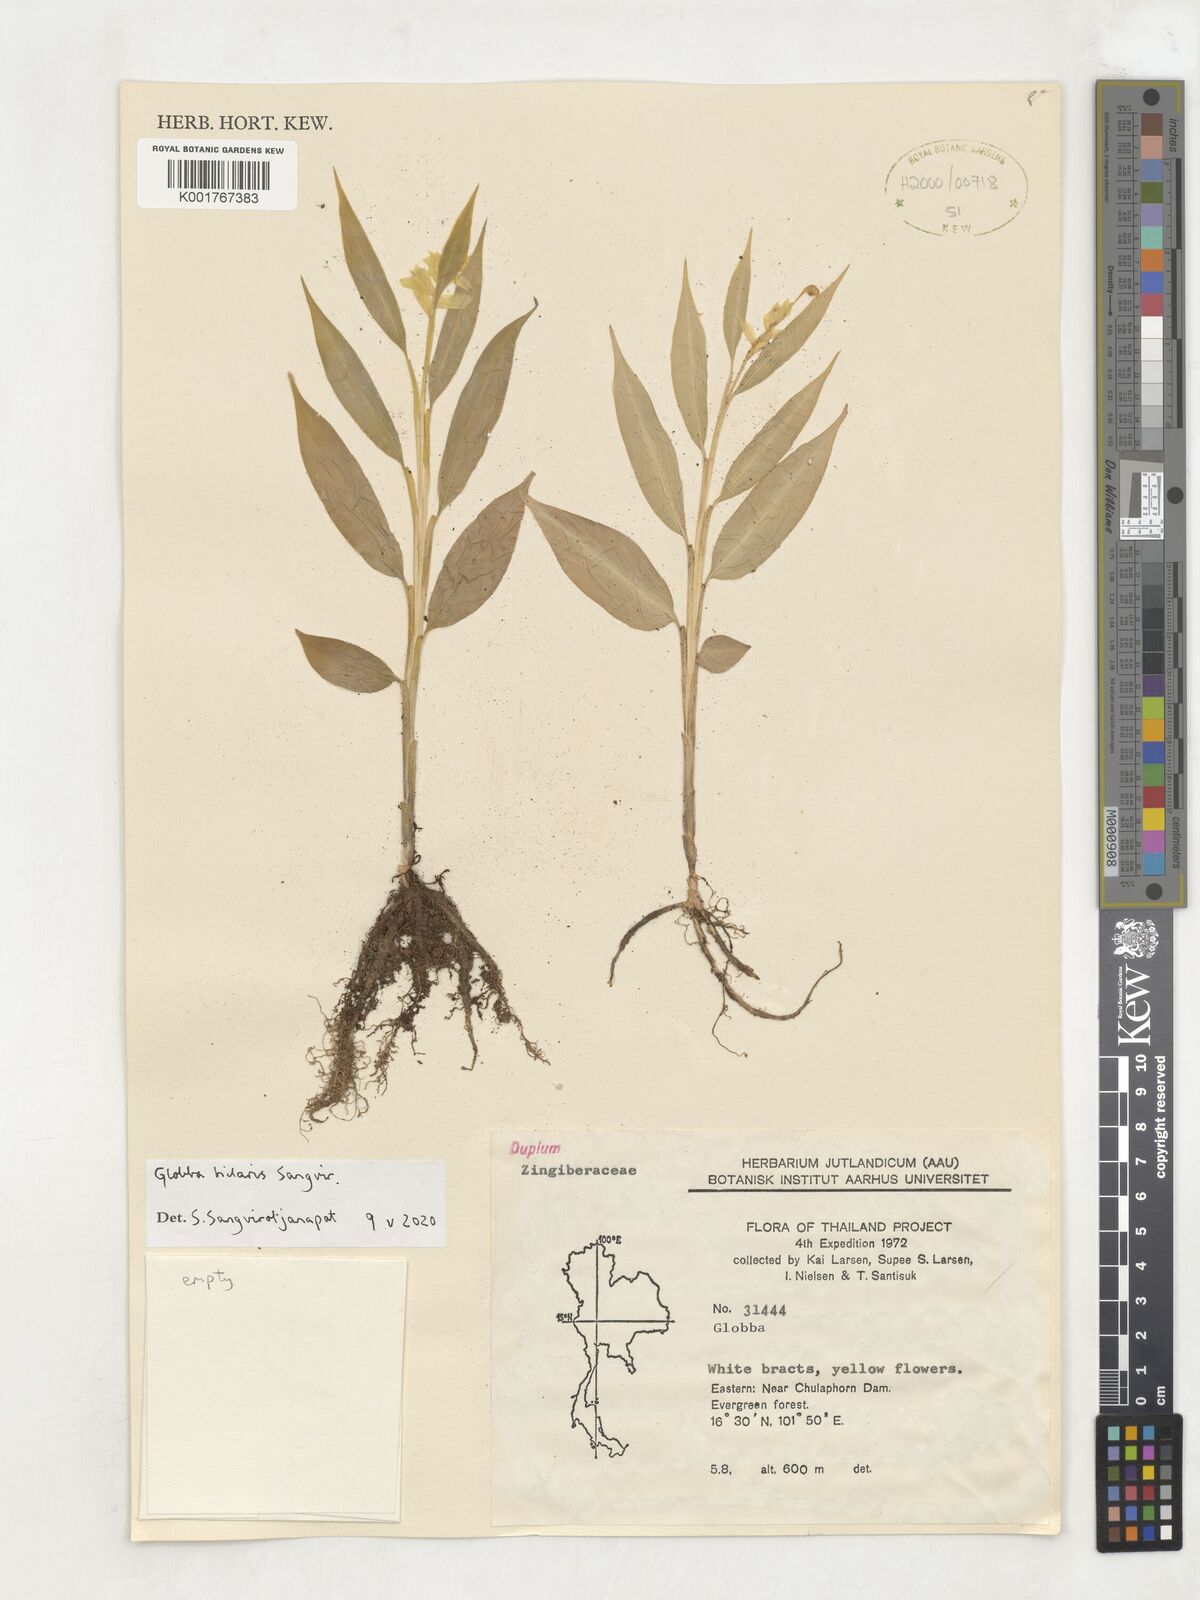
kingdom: Plantae
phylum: Tracheophyta
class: Liliopsida
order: Zingiberales
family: Zingiberaceae
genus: Globba
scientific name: Globba
